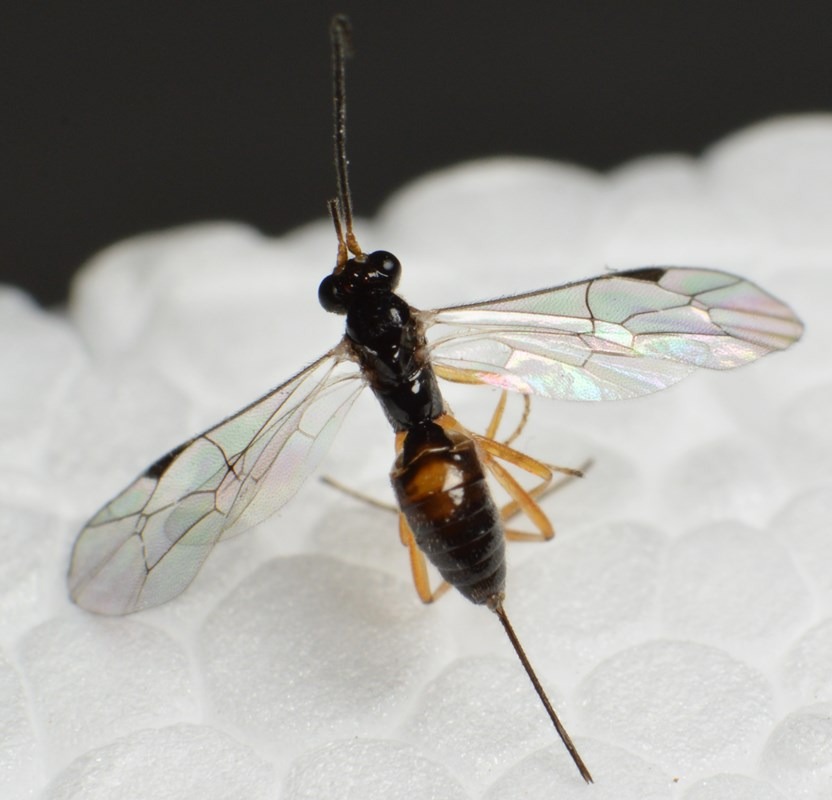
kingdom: Animalia
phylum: Arthropoda
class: Insecta
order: Hymenoptera
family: Ichneumonidae
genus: Aperileptus
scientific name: Aperileptus
